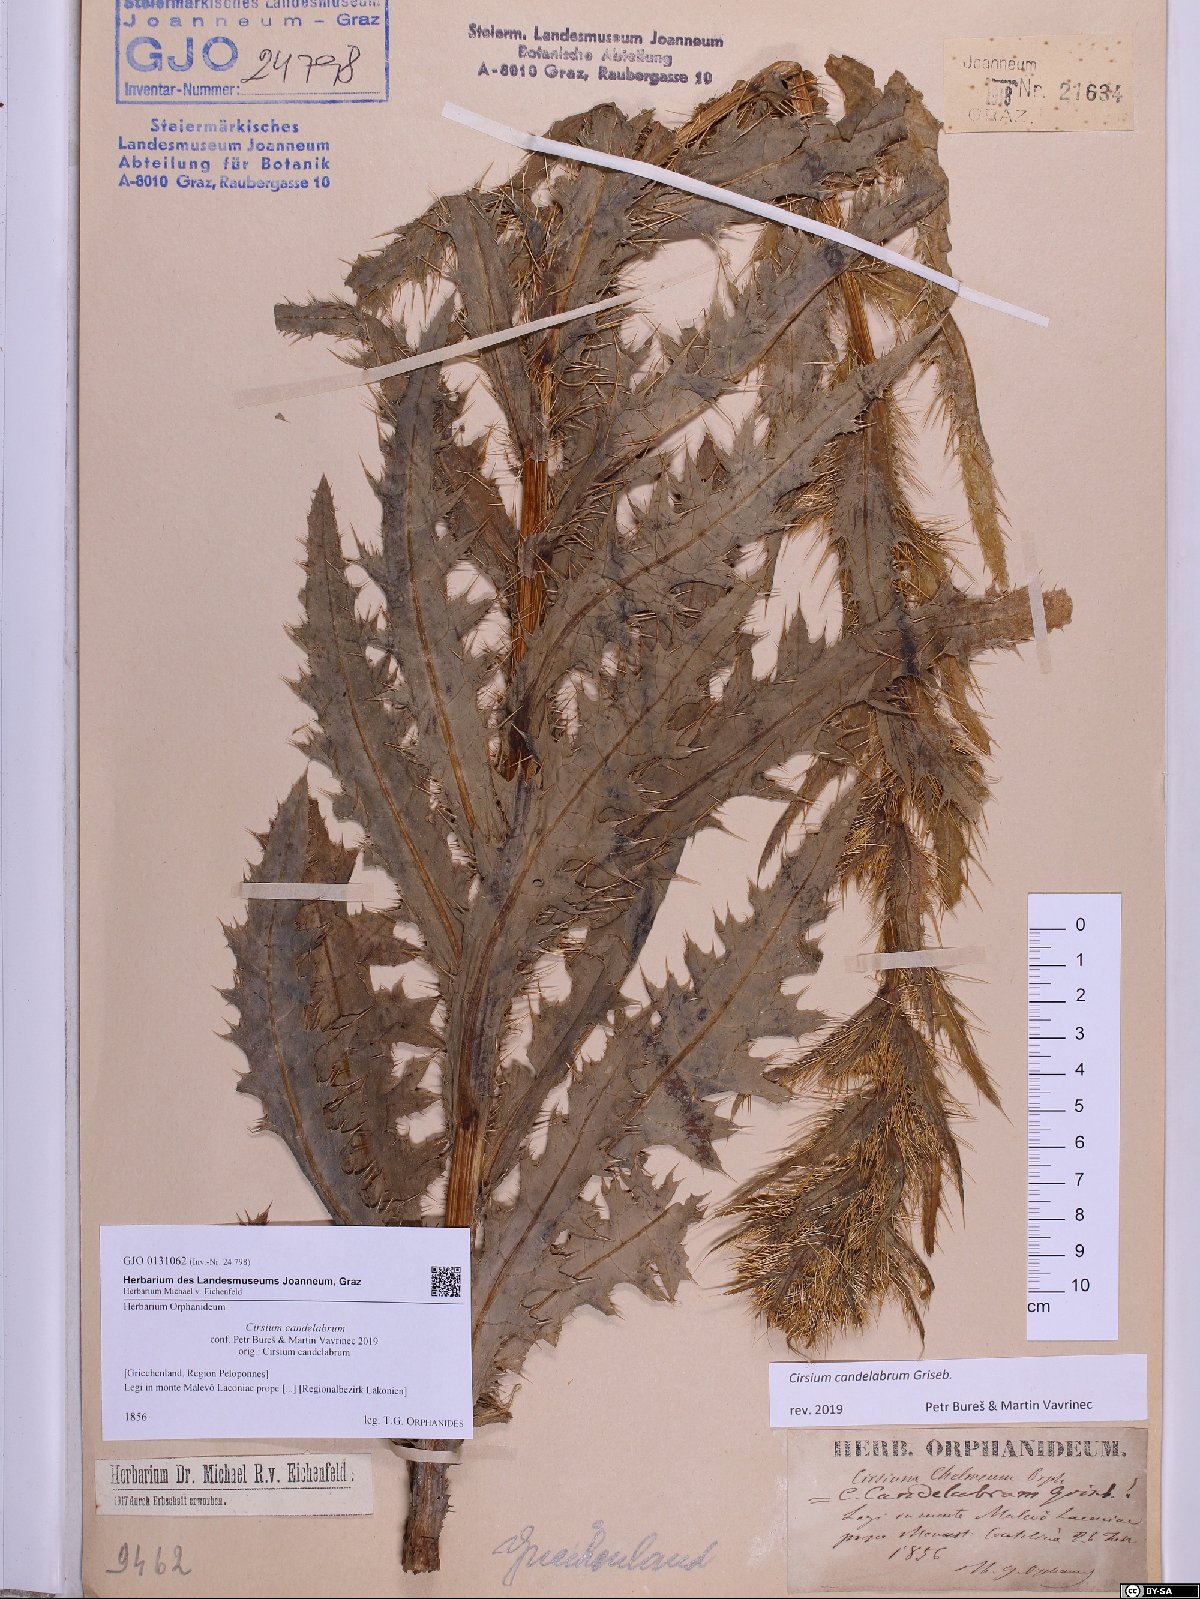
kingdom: Plantae
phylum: Tracheophyta
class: Magnoliopsida
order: Asterales
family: Asteraceae
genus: Cirsium
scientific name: Cirsium candelabrum
